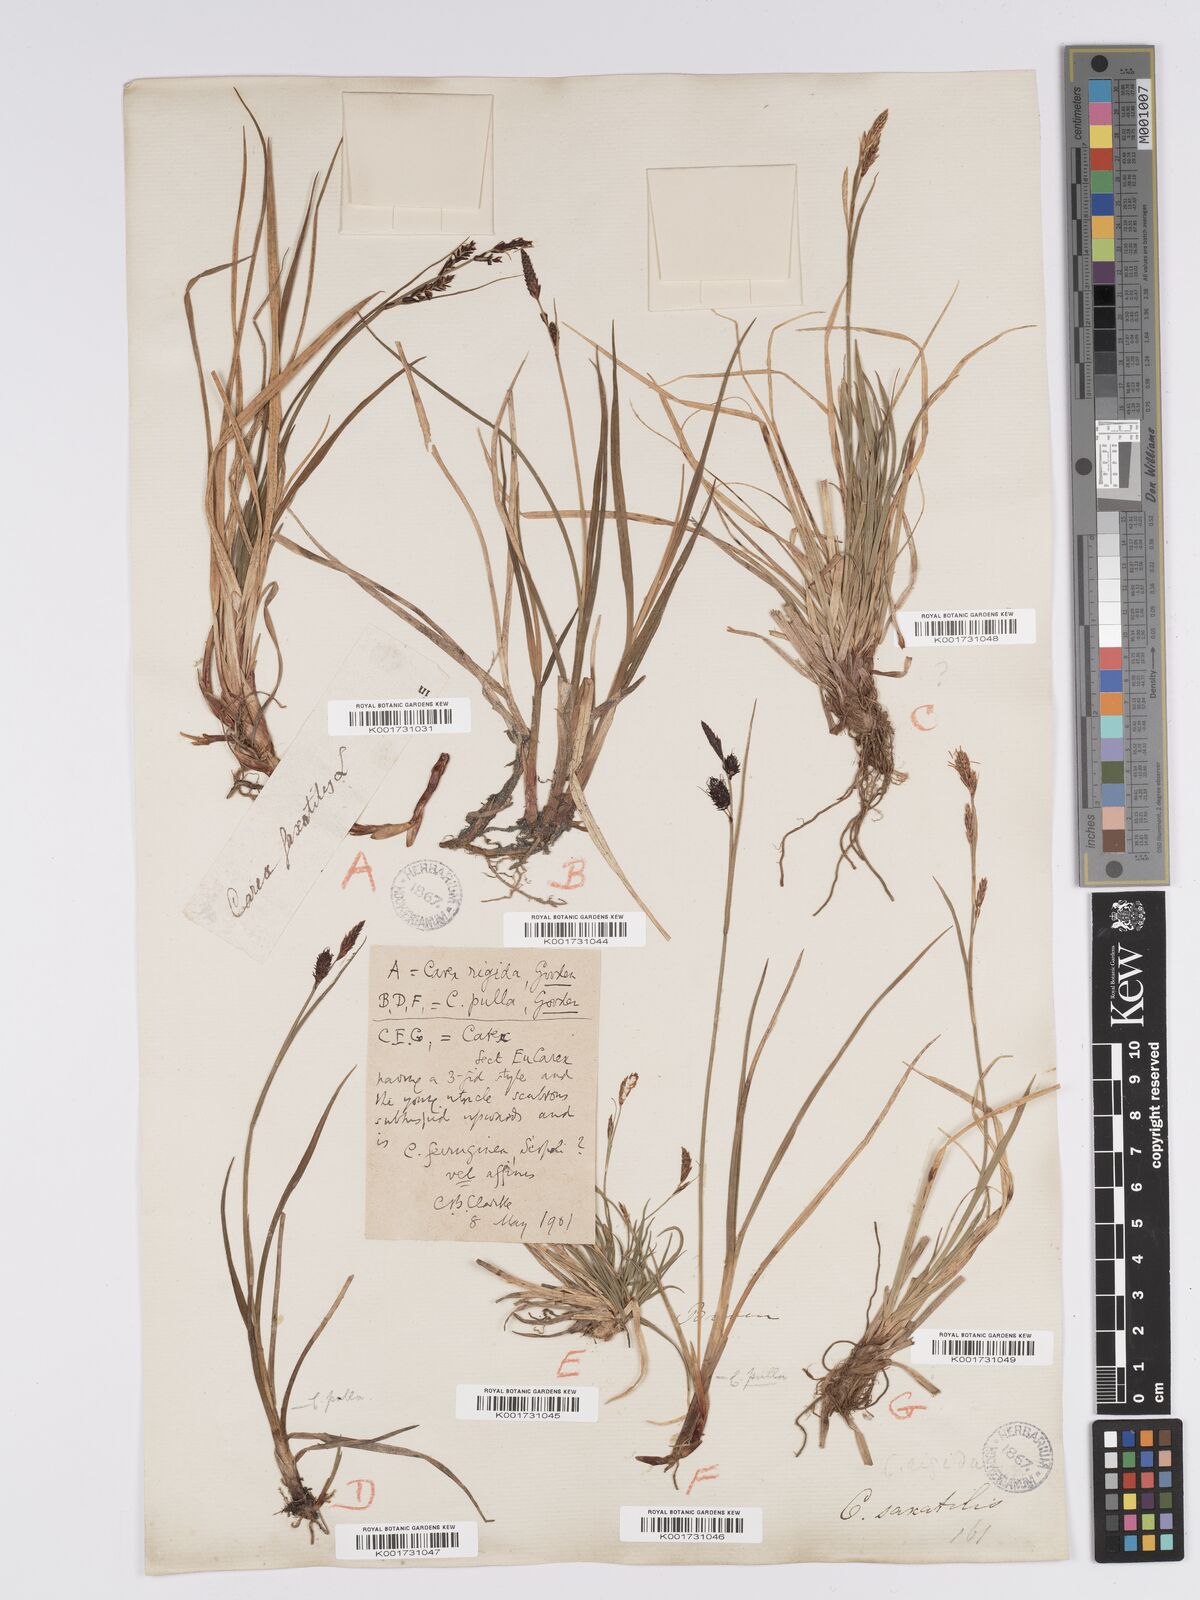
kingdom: Plantae
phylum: Tracheophyta
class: Liliopsida
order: Poales
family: Cyperaceae
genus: Carex
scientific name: Carex bigelowii
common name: Stiff sedge
